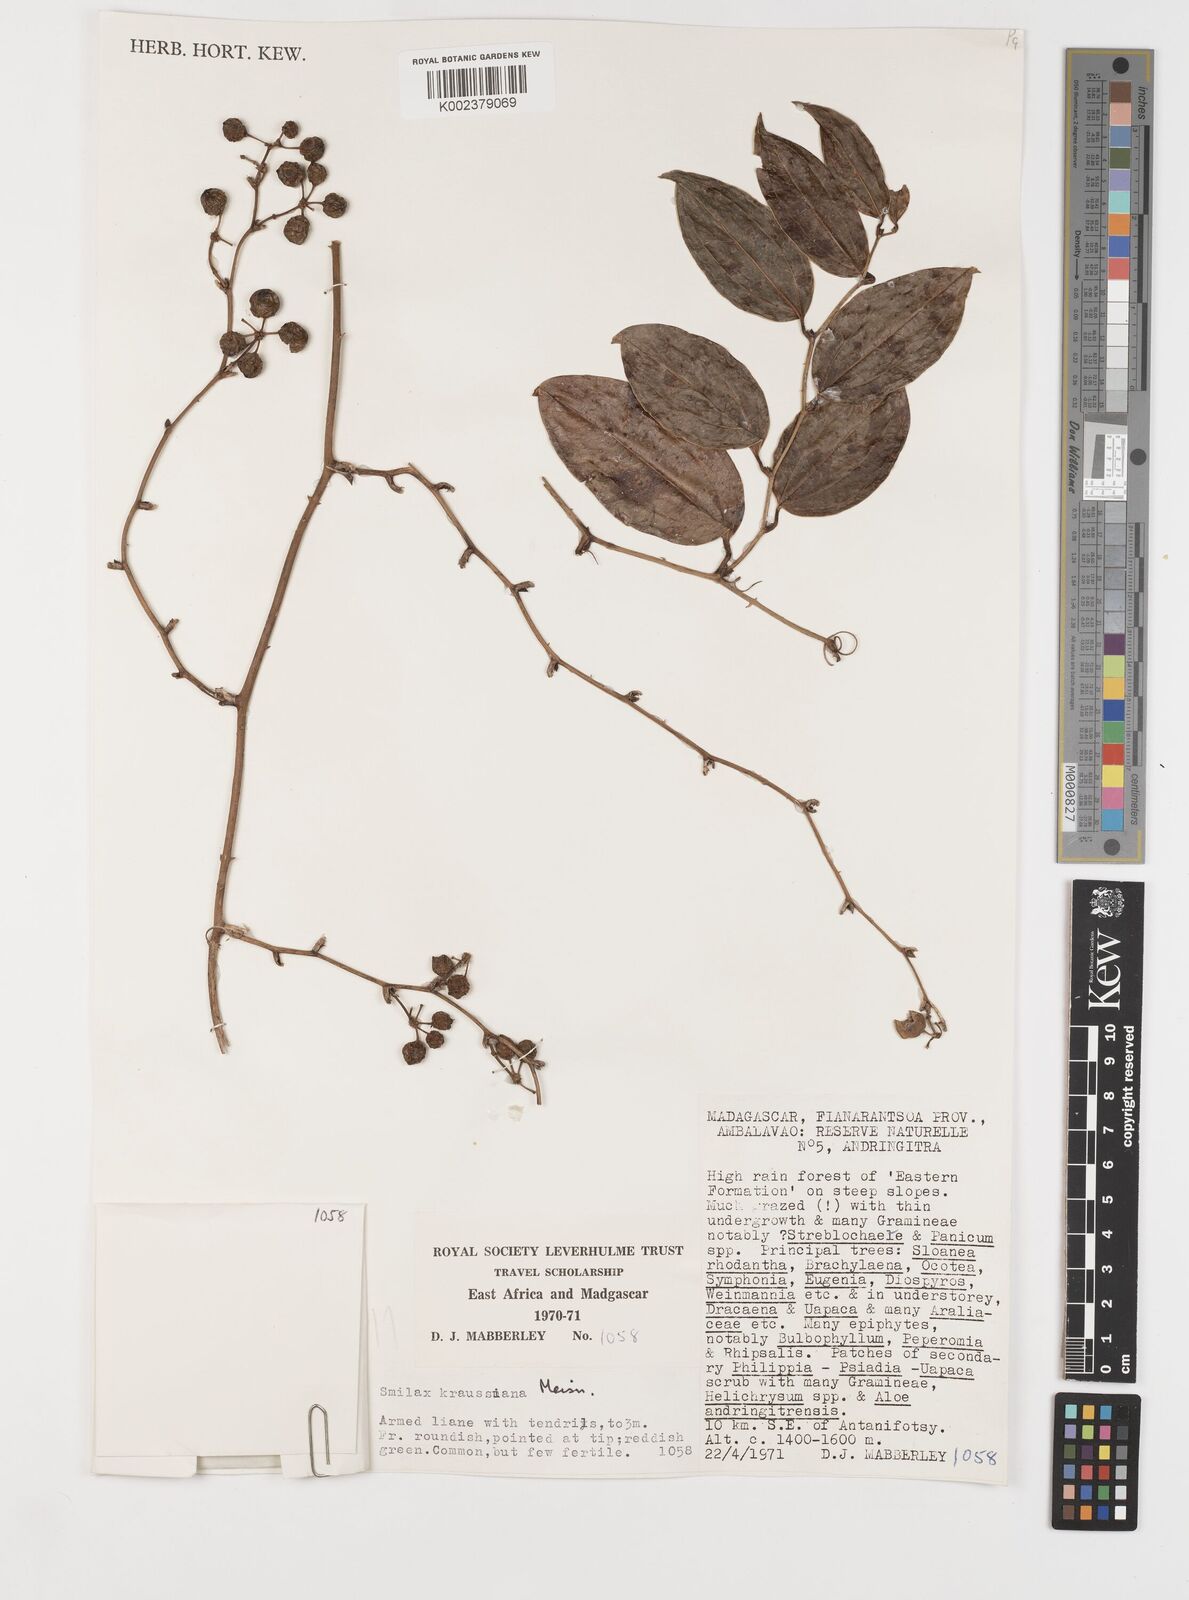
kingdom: Plantae
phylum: Tracheophyta
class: Liliopsida
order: Liliales
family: Smilacaceae
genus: Smilax
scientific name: Smilax anceps
